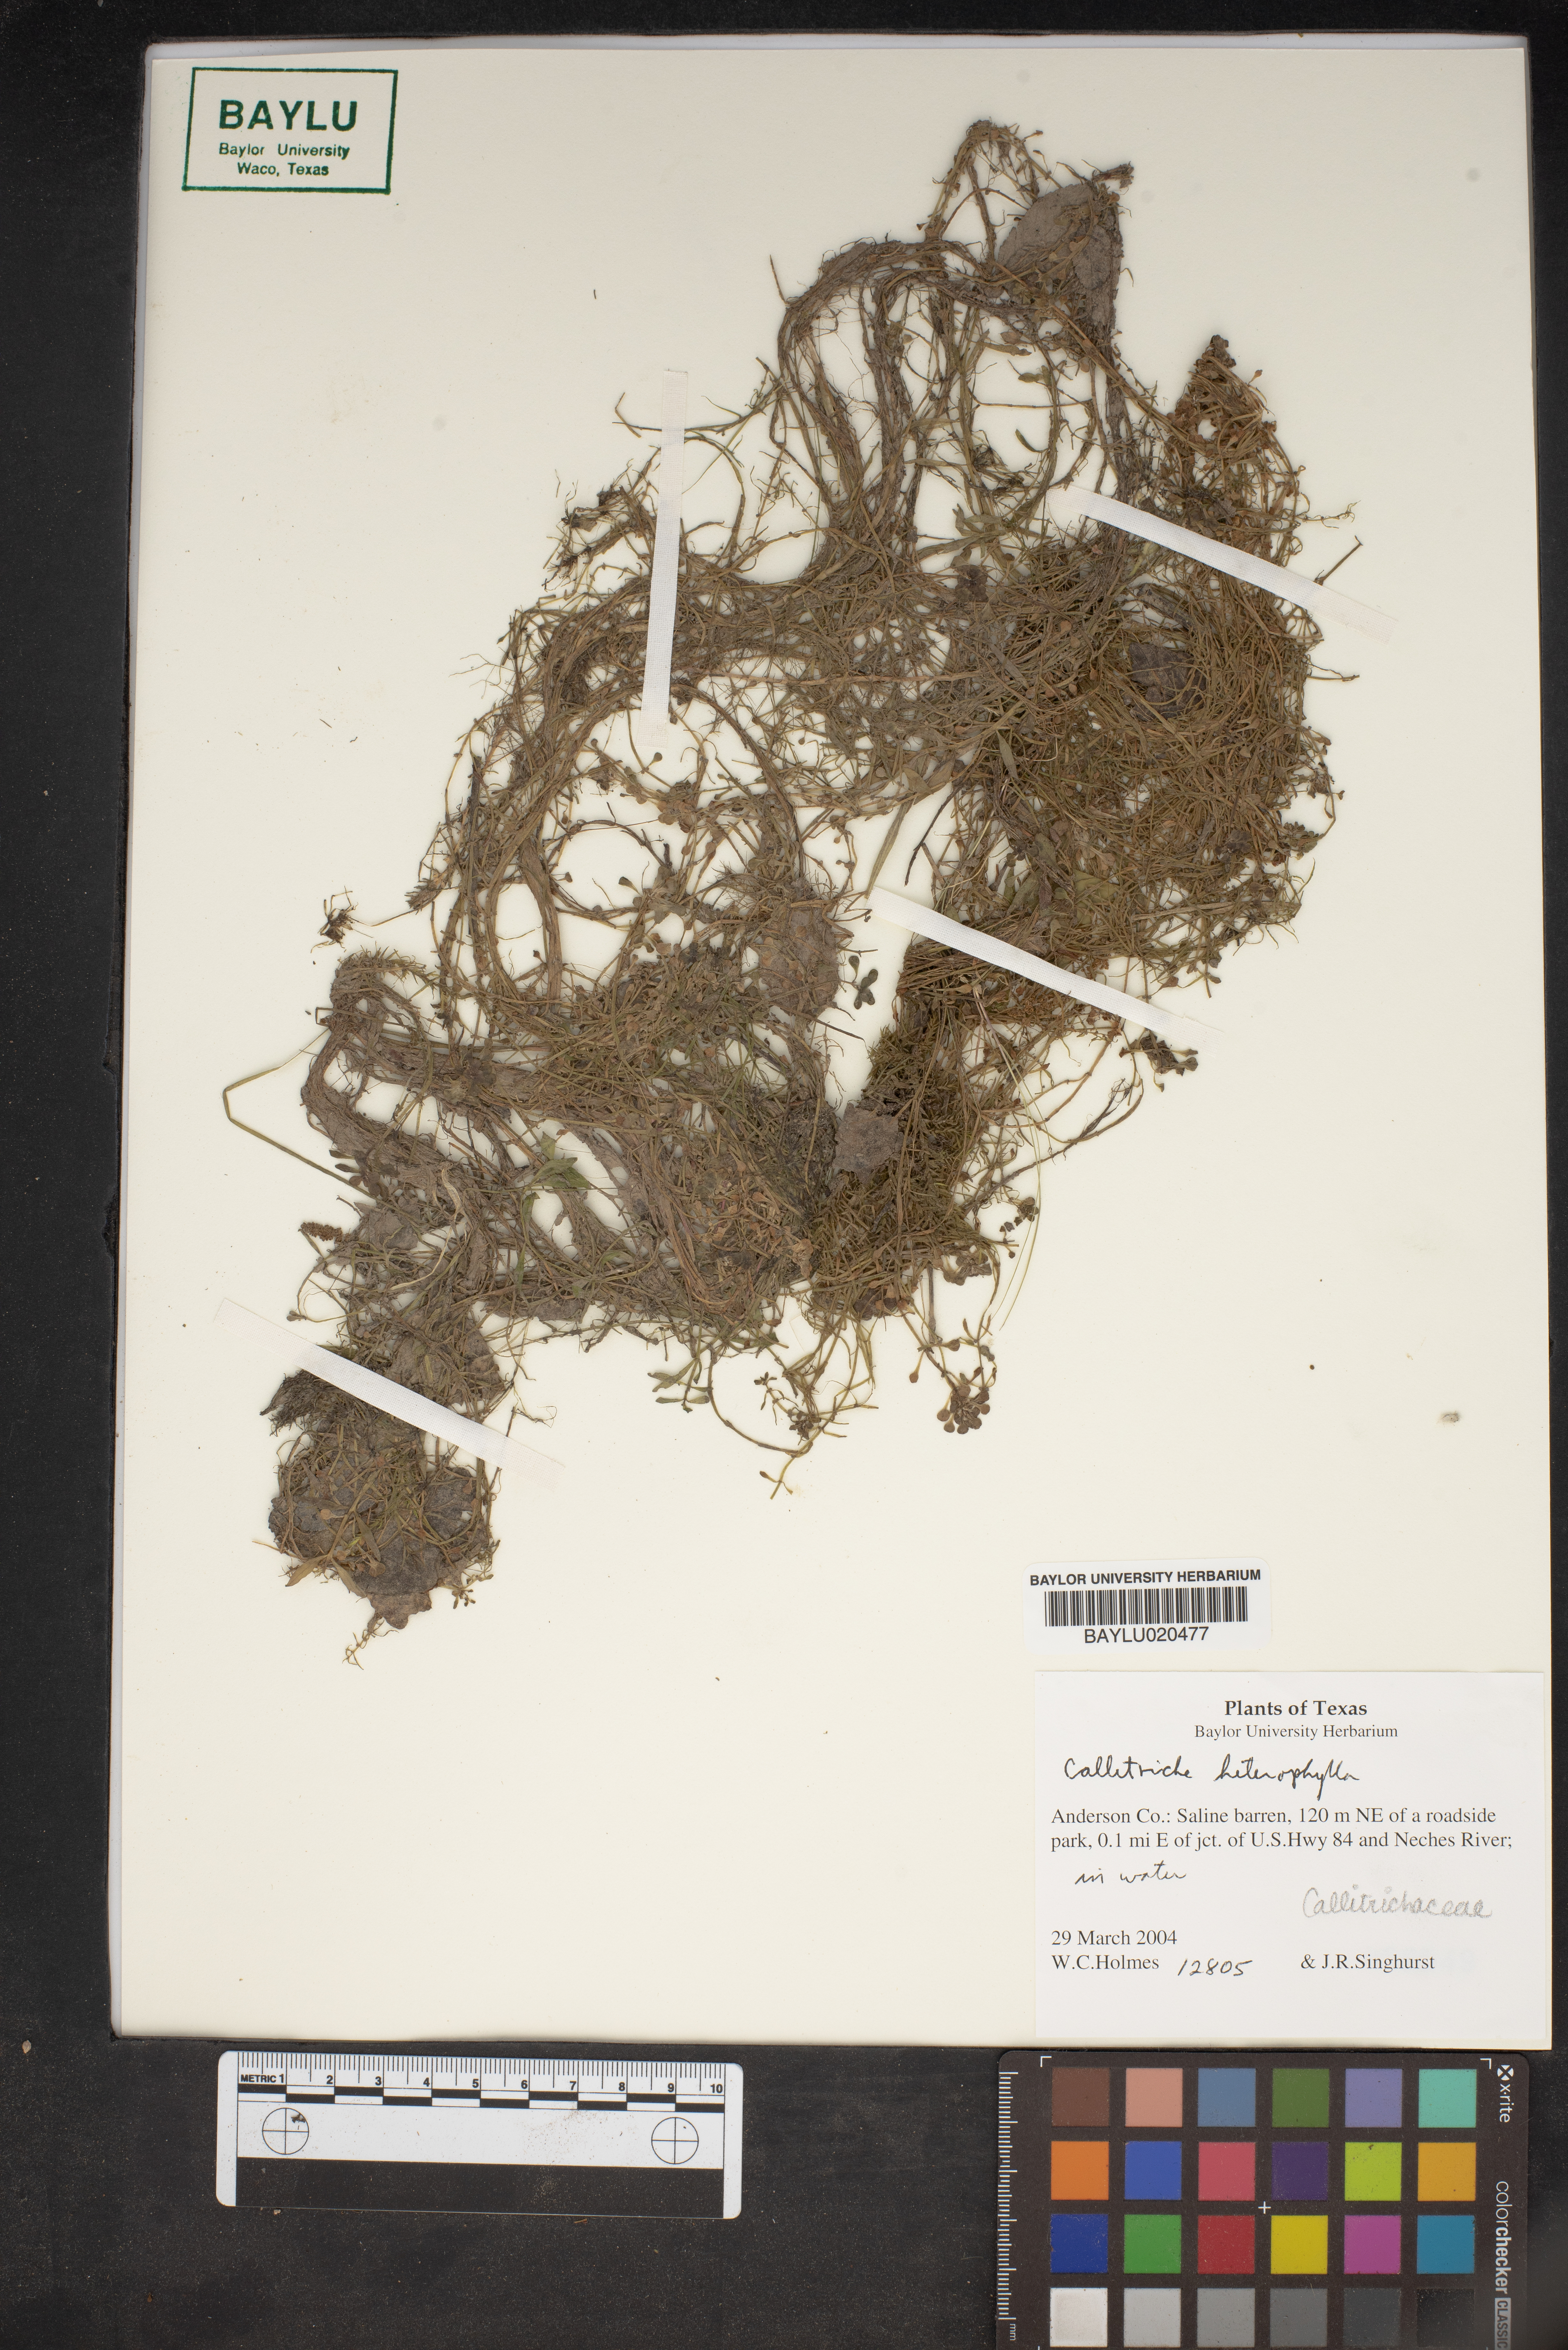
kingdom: Plantae
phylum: Tracheophyta
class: Magnoliopsida
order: Lamiales
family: Plantaginaceae
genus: Callitriche
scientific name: Callitriche heterophylla
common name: Two-headed water-starwort
